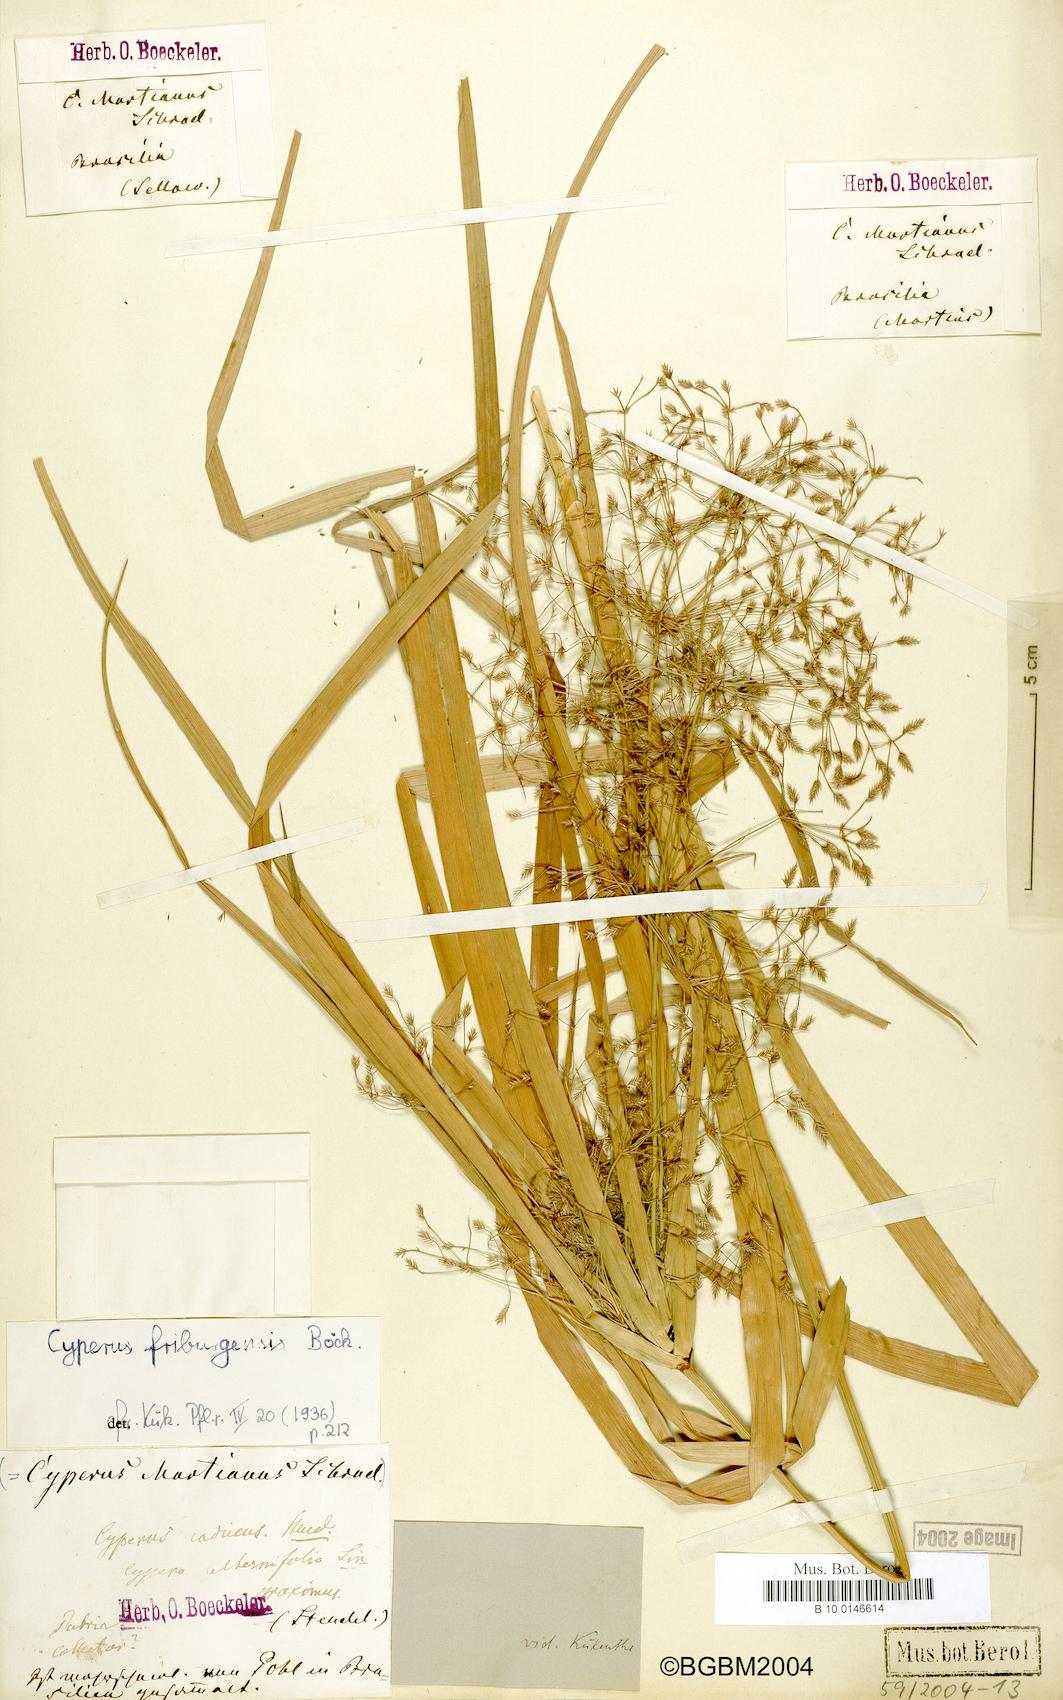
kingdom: Plantae
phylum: Tracheophyta
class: Liliopsida
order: Poales
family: Cyperaceae
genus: Cyperus
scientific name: Cyperus friburgensis
